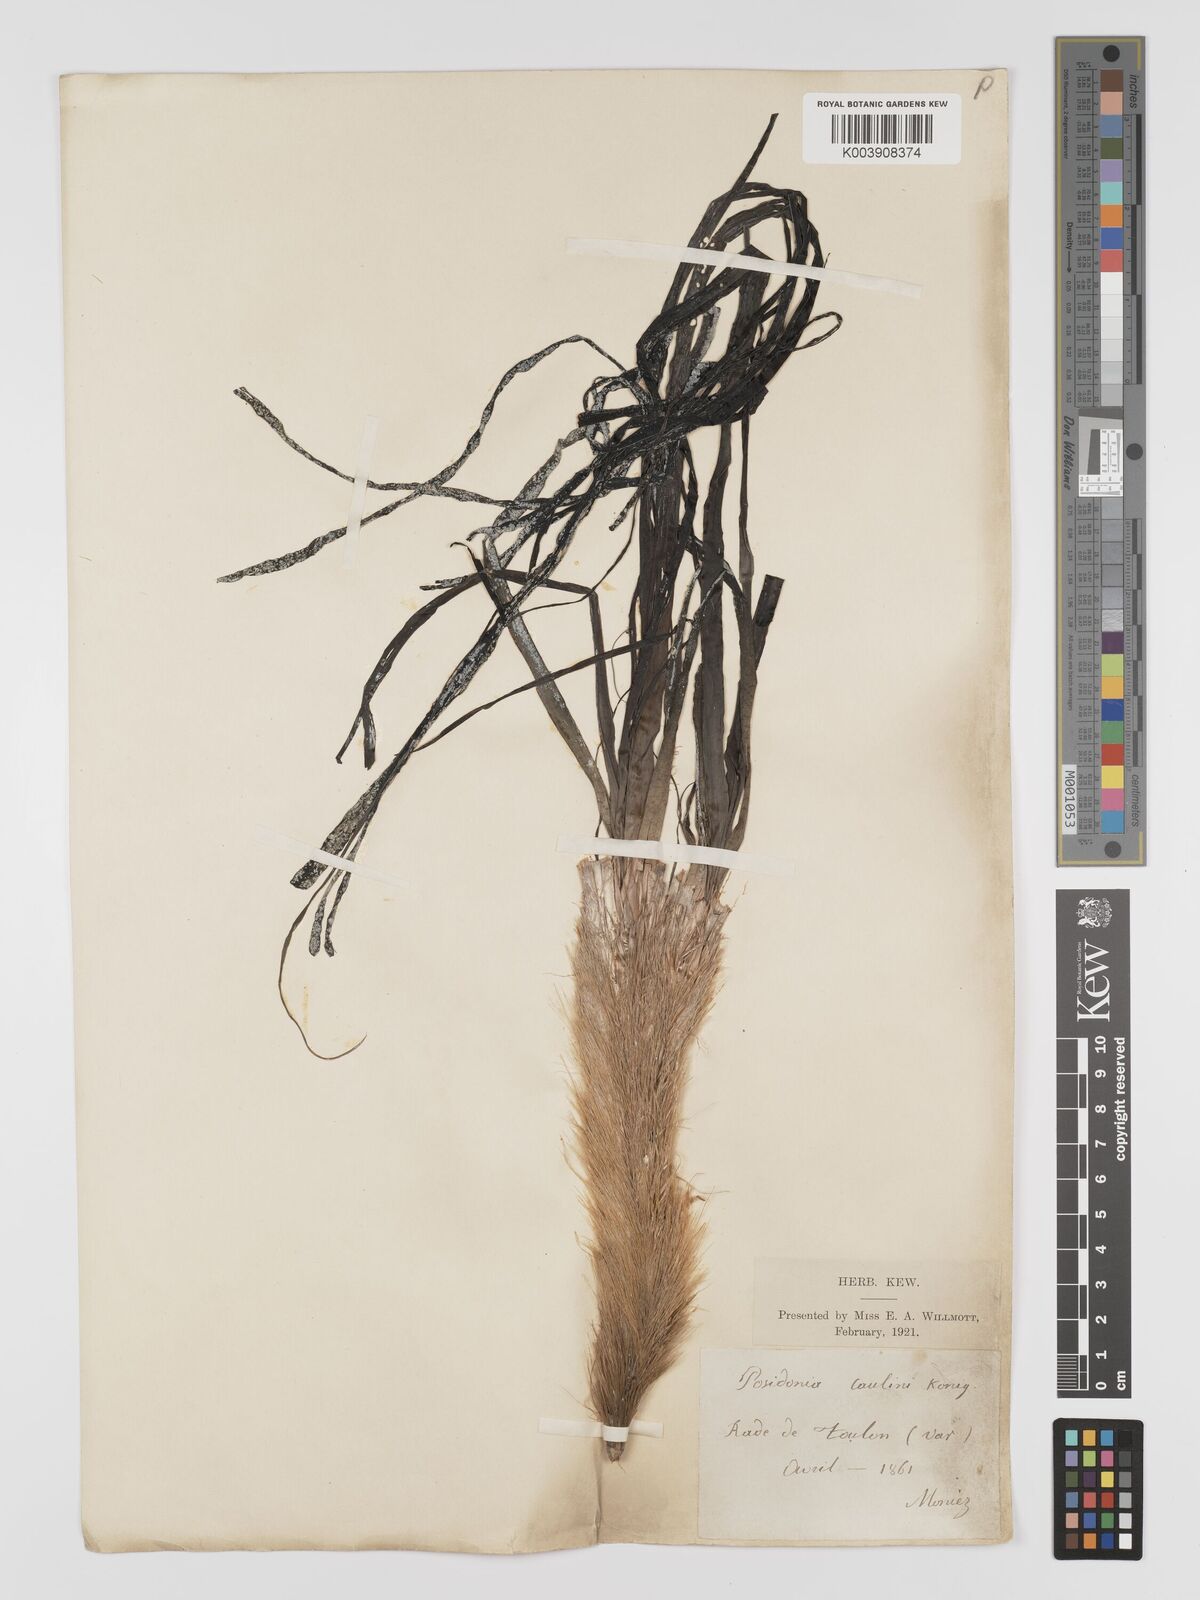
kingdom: Plantae
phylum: Tracheophyta
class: Liliopsida
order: Alismatales
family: Posidoniaceae
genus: Posidonia
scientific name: Posidonia
